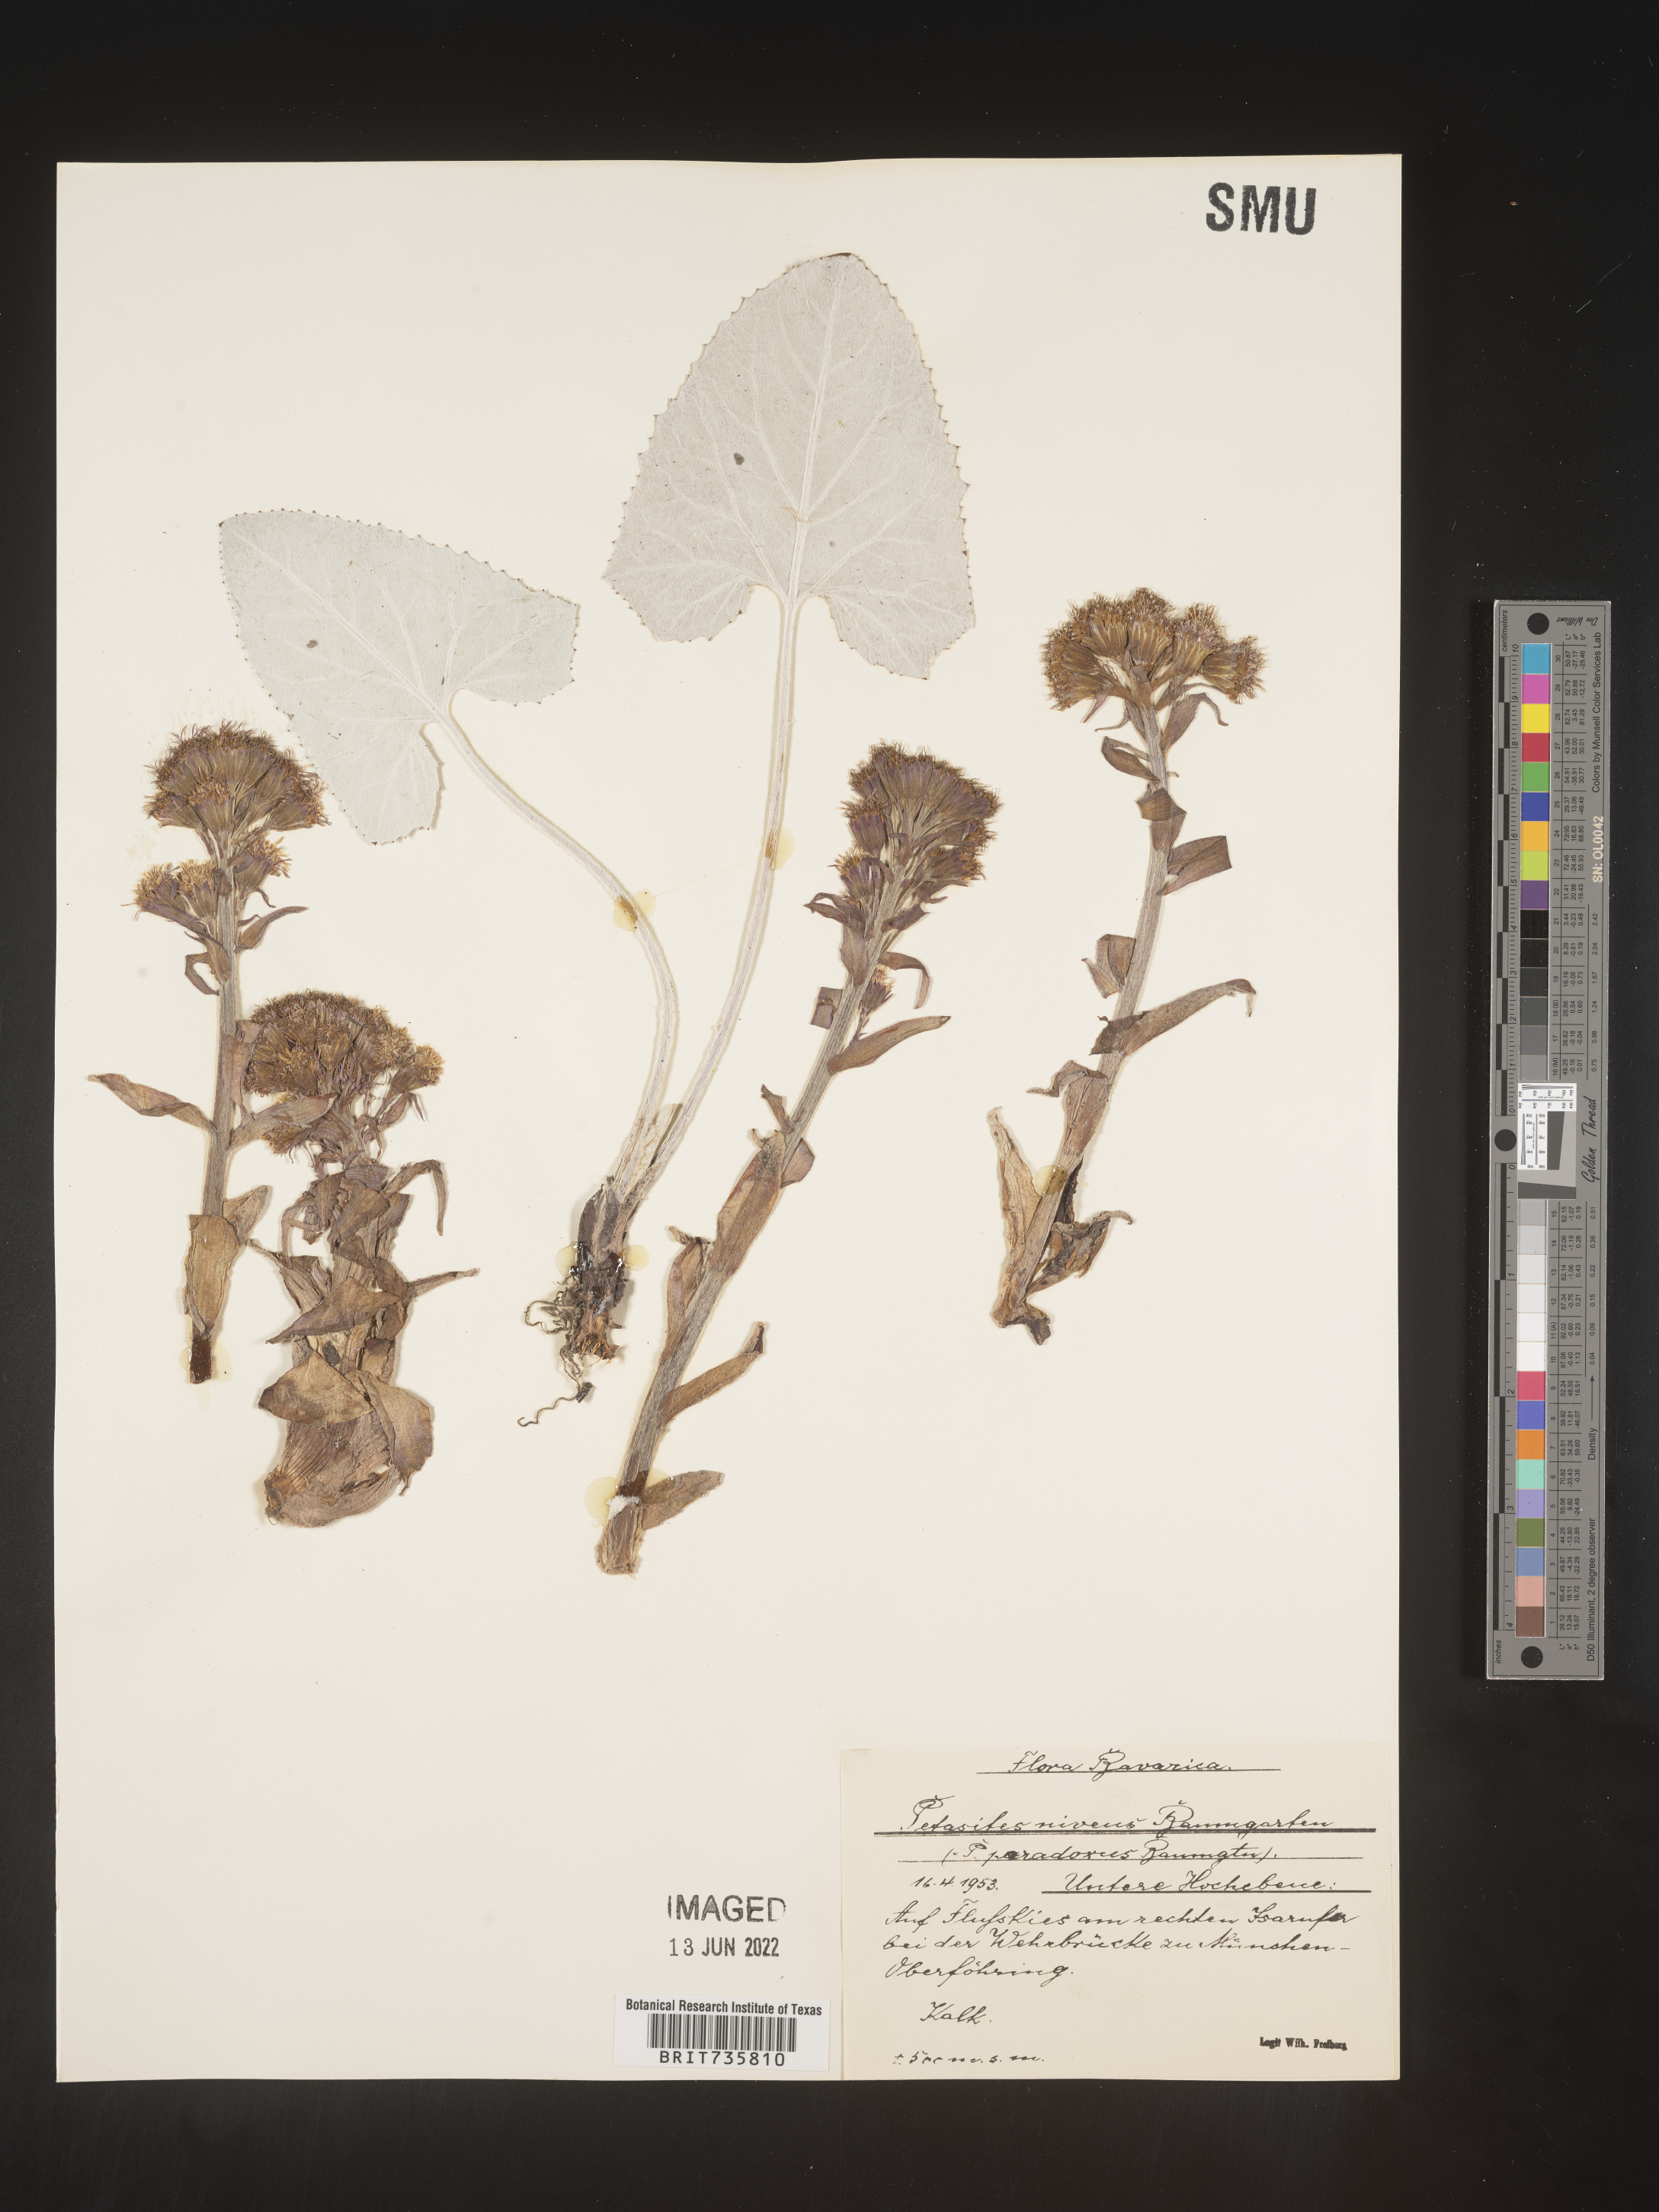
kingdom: Plantae
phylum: Tracheophyta
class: Magnoliopsida
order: Asterales
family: Asteraceae
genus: Petasites
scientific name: Petasites
